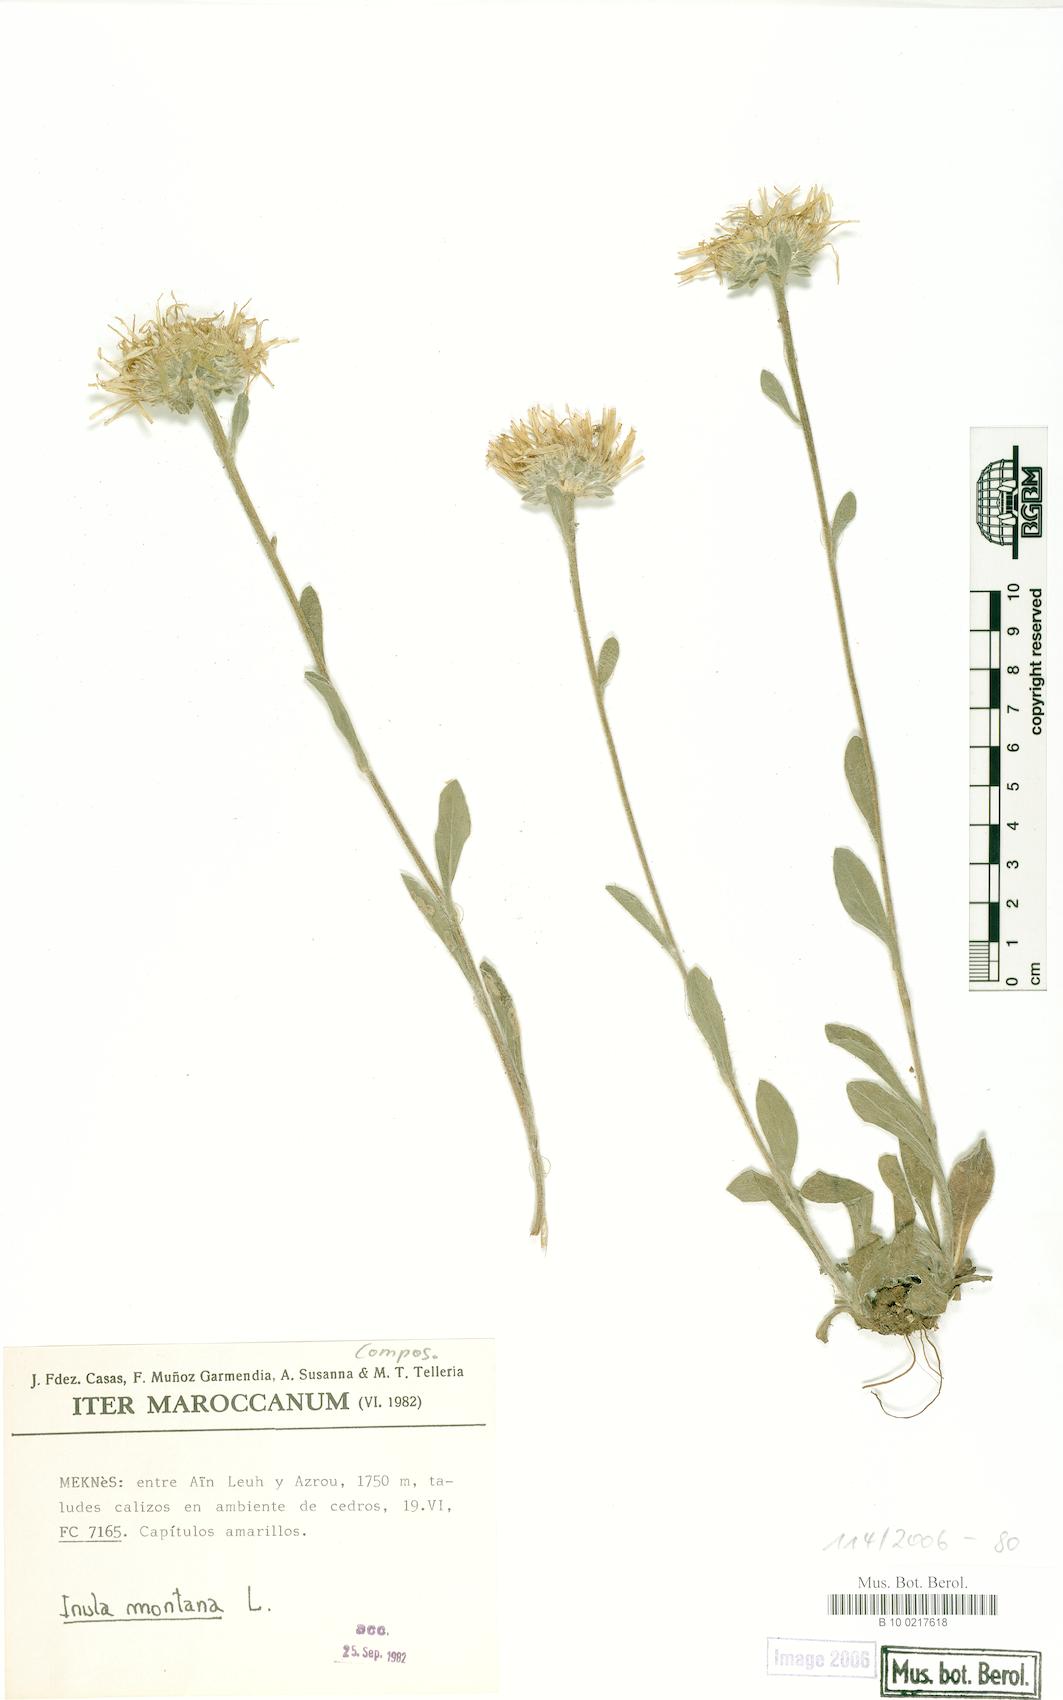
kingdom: Plantae
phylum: Tracheophyta
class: Magnoliopsida
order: Asterales
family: Asteraceae
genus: Pentanema
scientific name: Pentanema montanum
